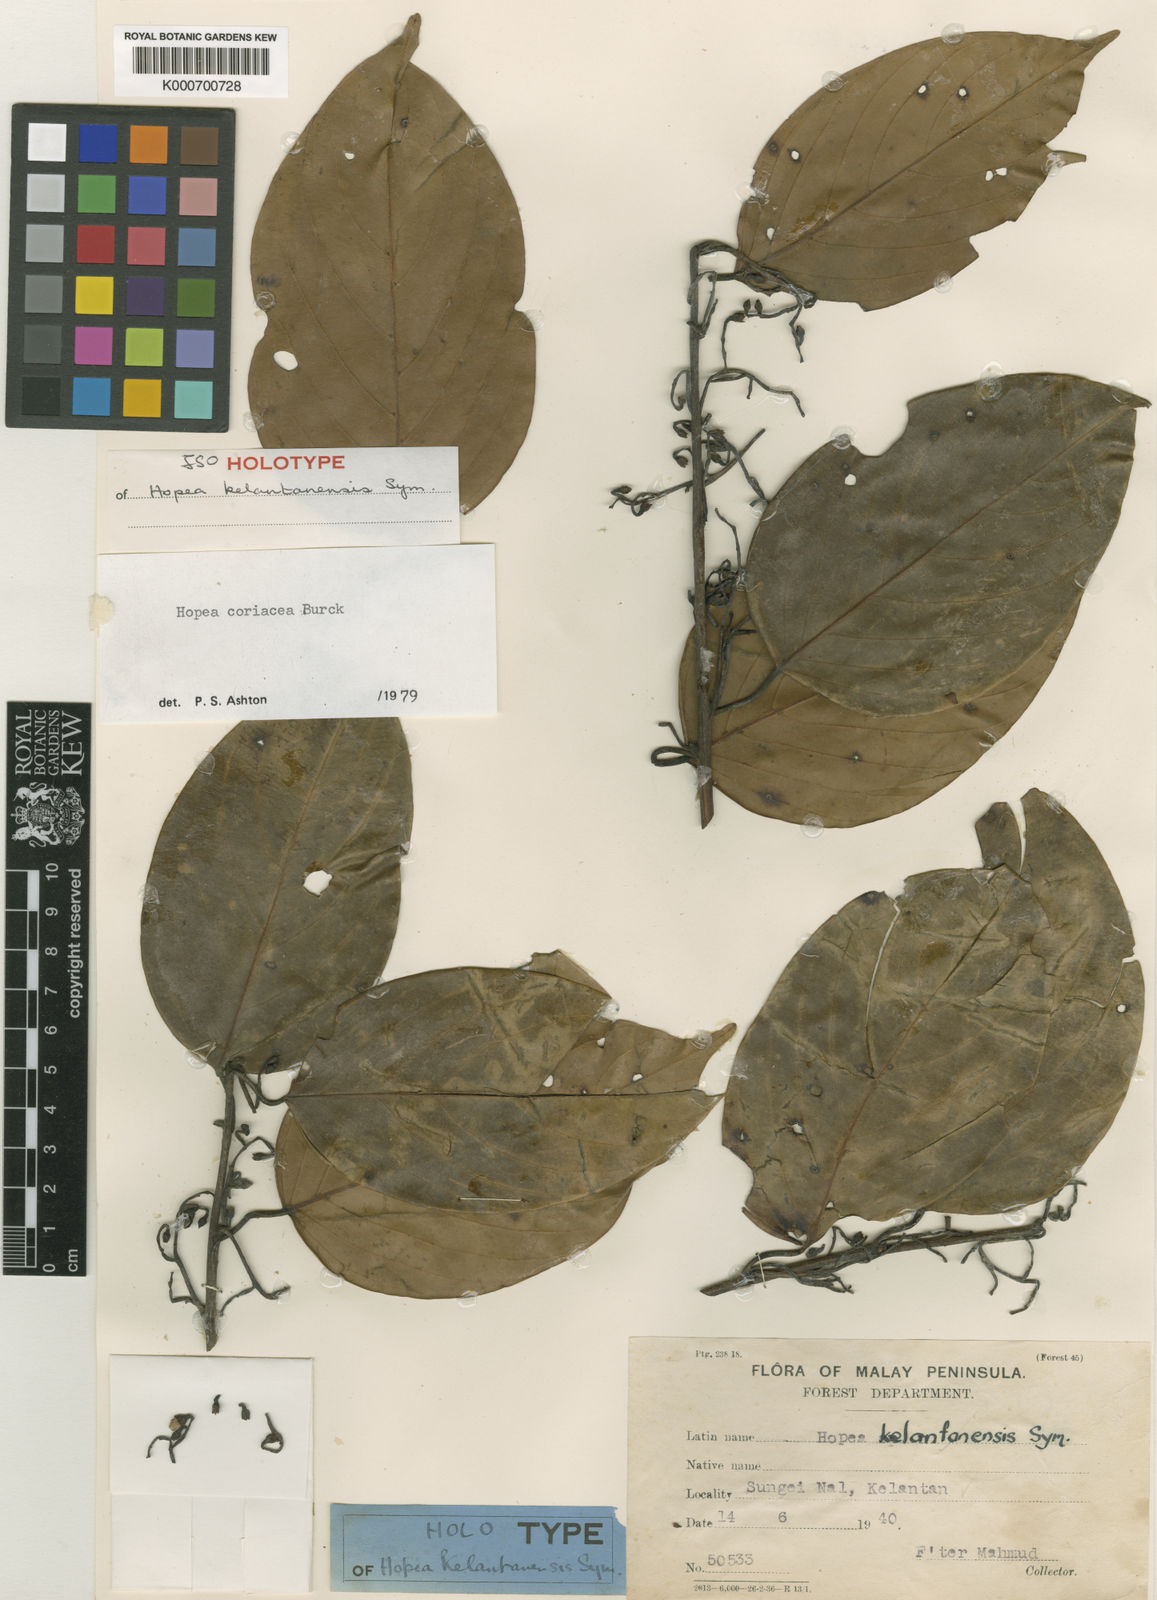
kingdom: Plantae
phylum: Tracheophyta
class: Magnoliopsida
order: Malvales
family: Dipterocarpaceae
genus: Hopea
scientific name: Hopea coriacea
